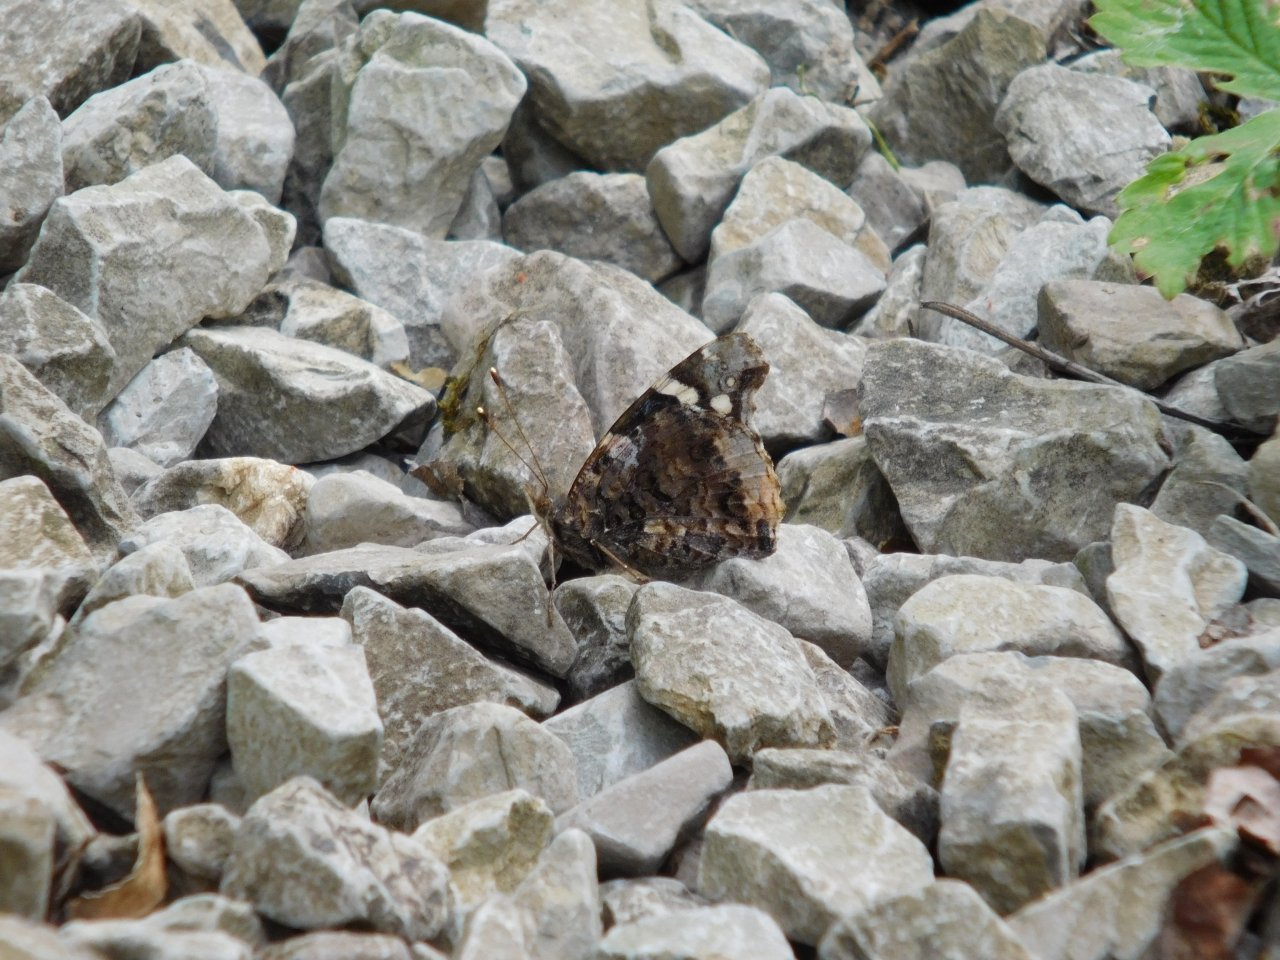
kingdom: Animalia
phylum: Arthropoda
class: Insecta
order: Lepidoptera
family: Nymphalidae
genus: Vanessa
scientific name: Vanessa atalanta
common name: Red Admiral
